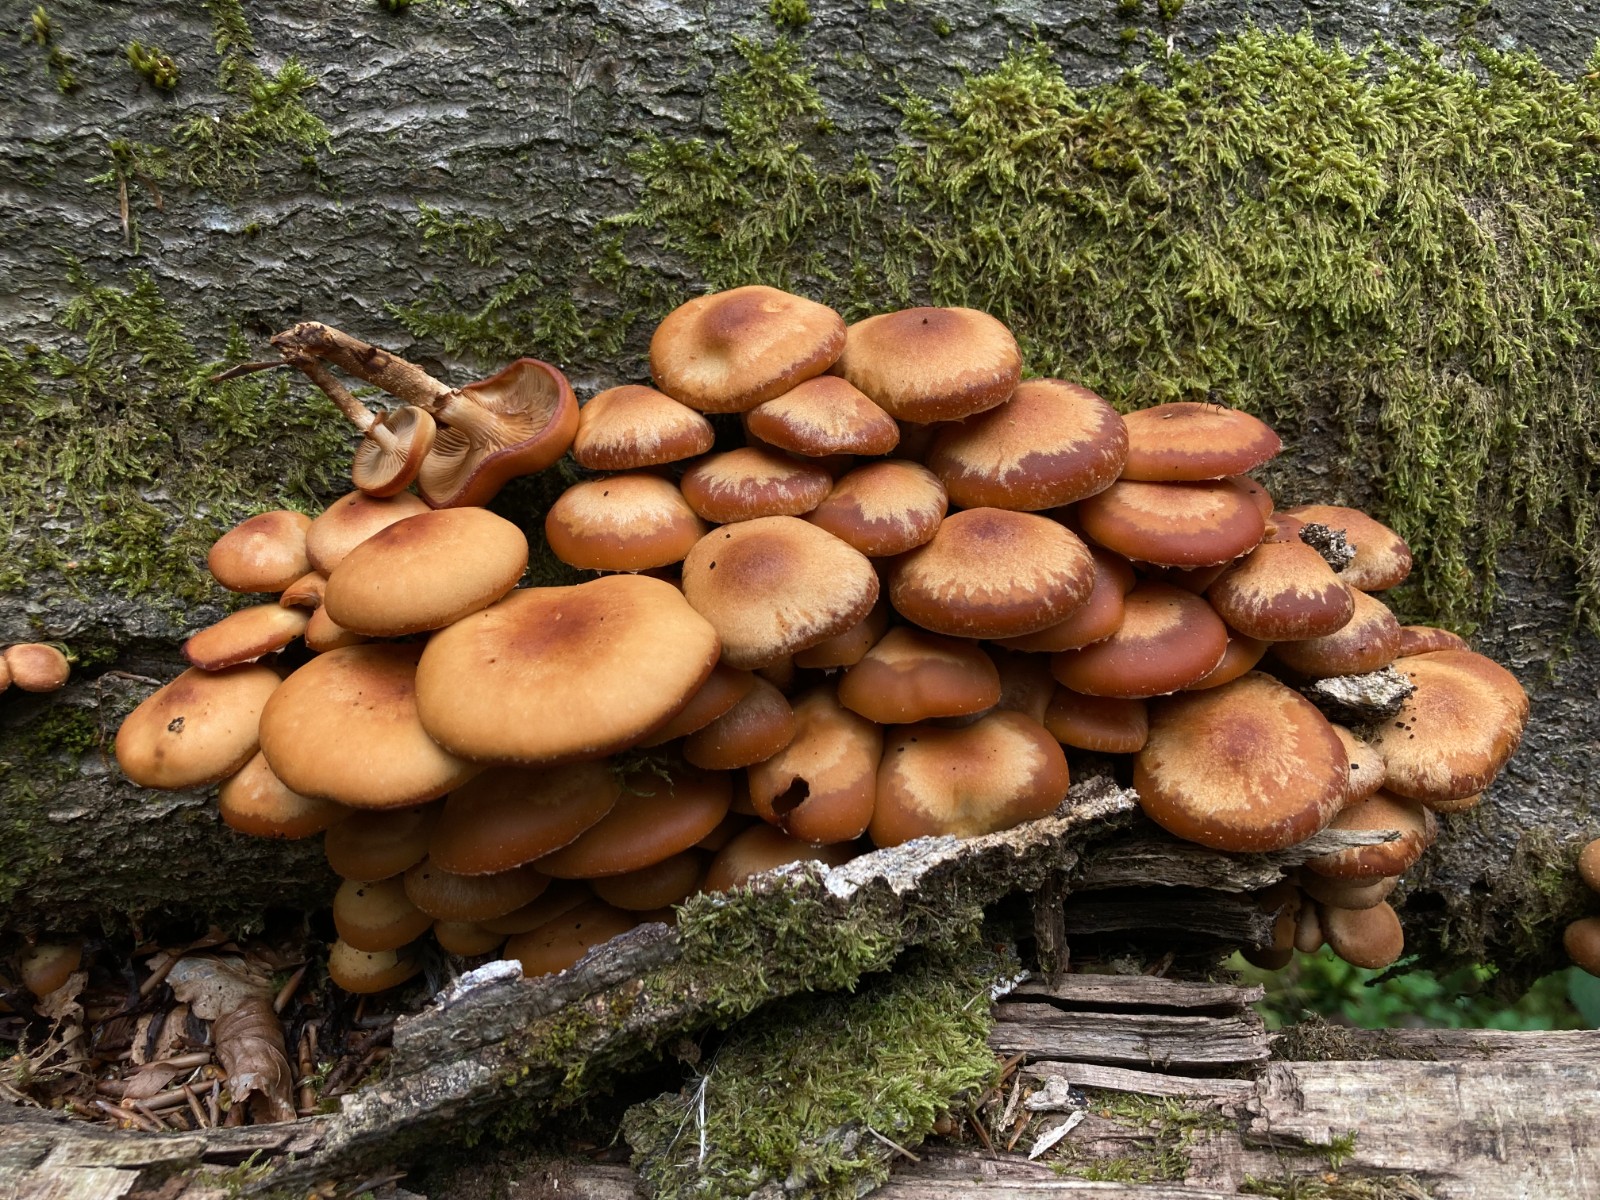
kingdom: Fungi
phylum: Basidiomycota
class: Agaricomycetes
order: Agaricales
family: Strophariaceae
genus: Kuehneromyces
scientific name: Kuehneromyces mutabilis
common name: foranderlig skælhat
